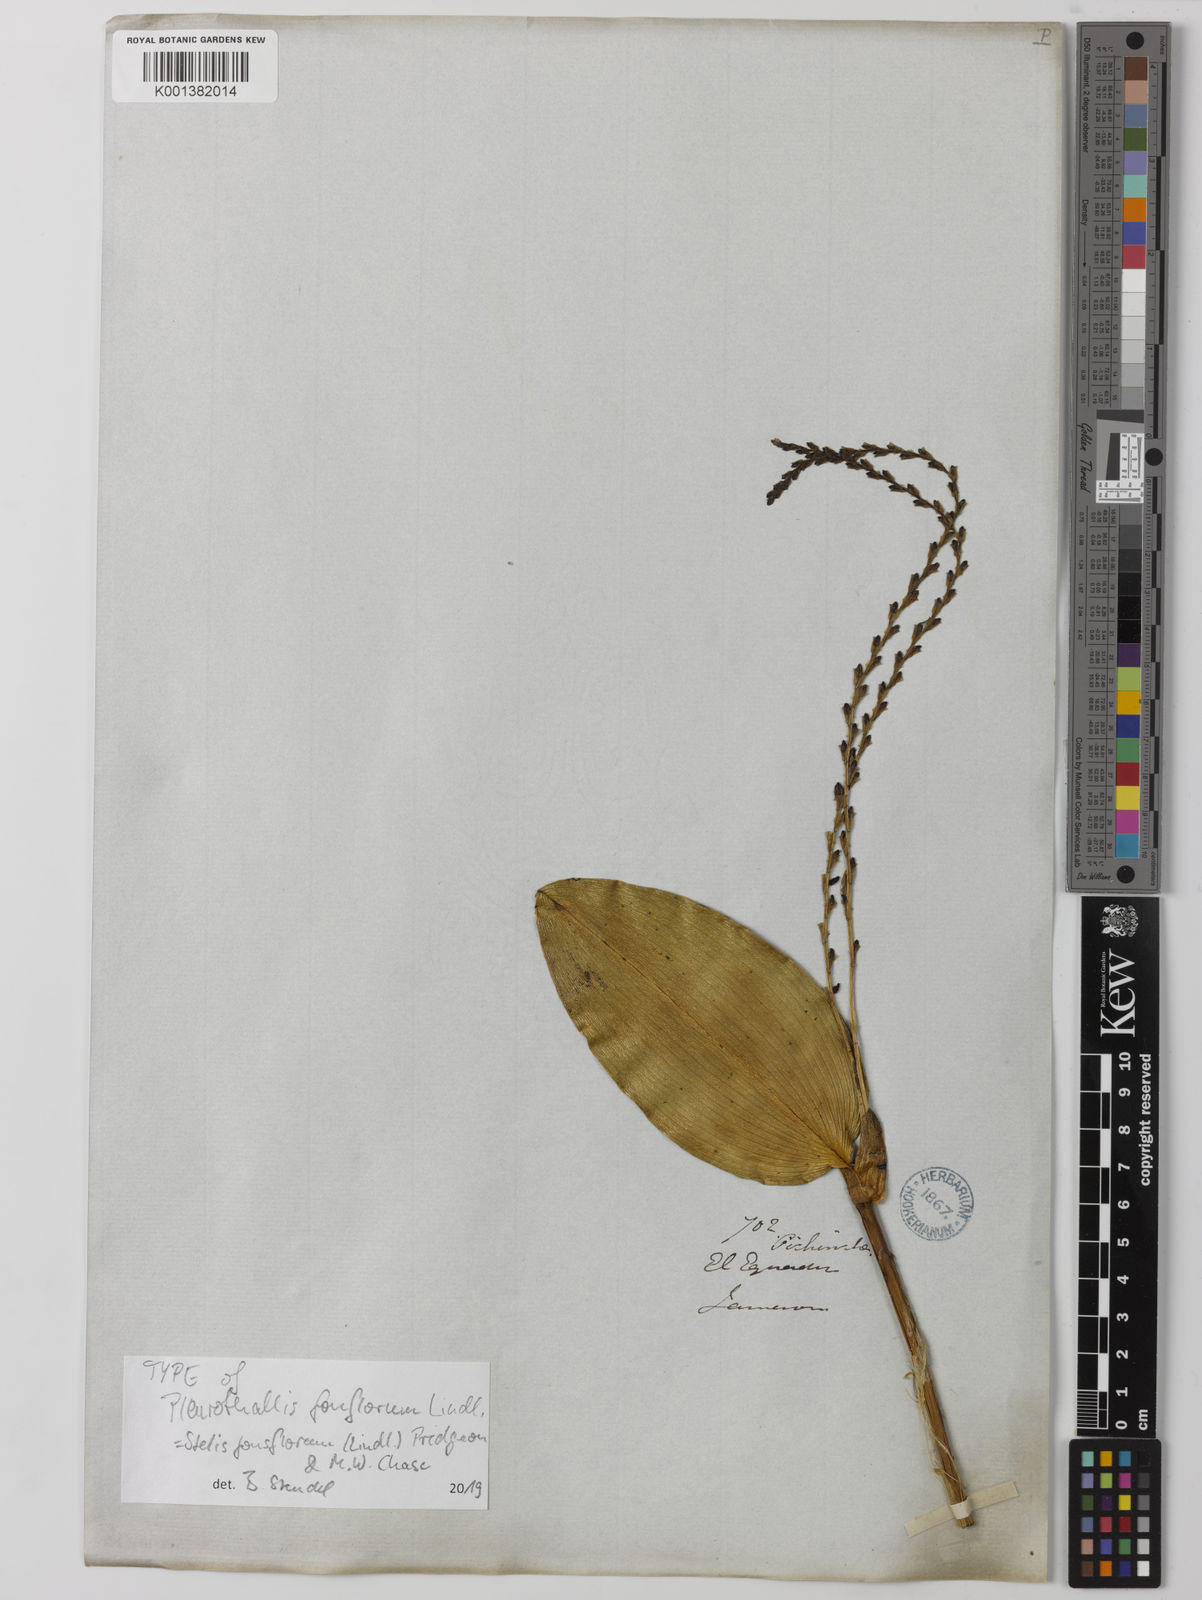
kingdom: Plantae
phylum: Tracheophyta
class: Liliopsida
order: Asparagales
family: Orchidaceae
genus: Stelis
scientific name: Stelis fonsflorum
